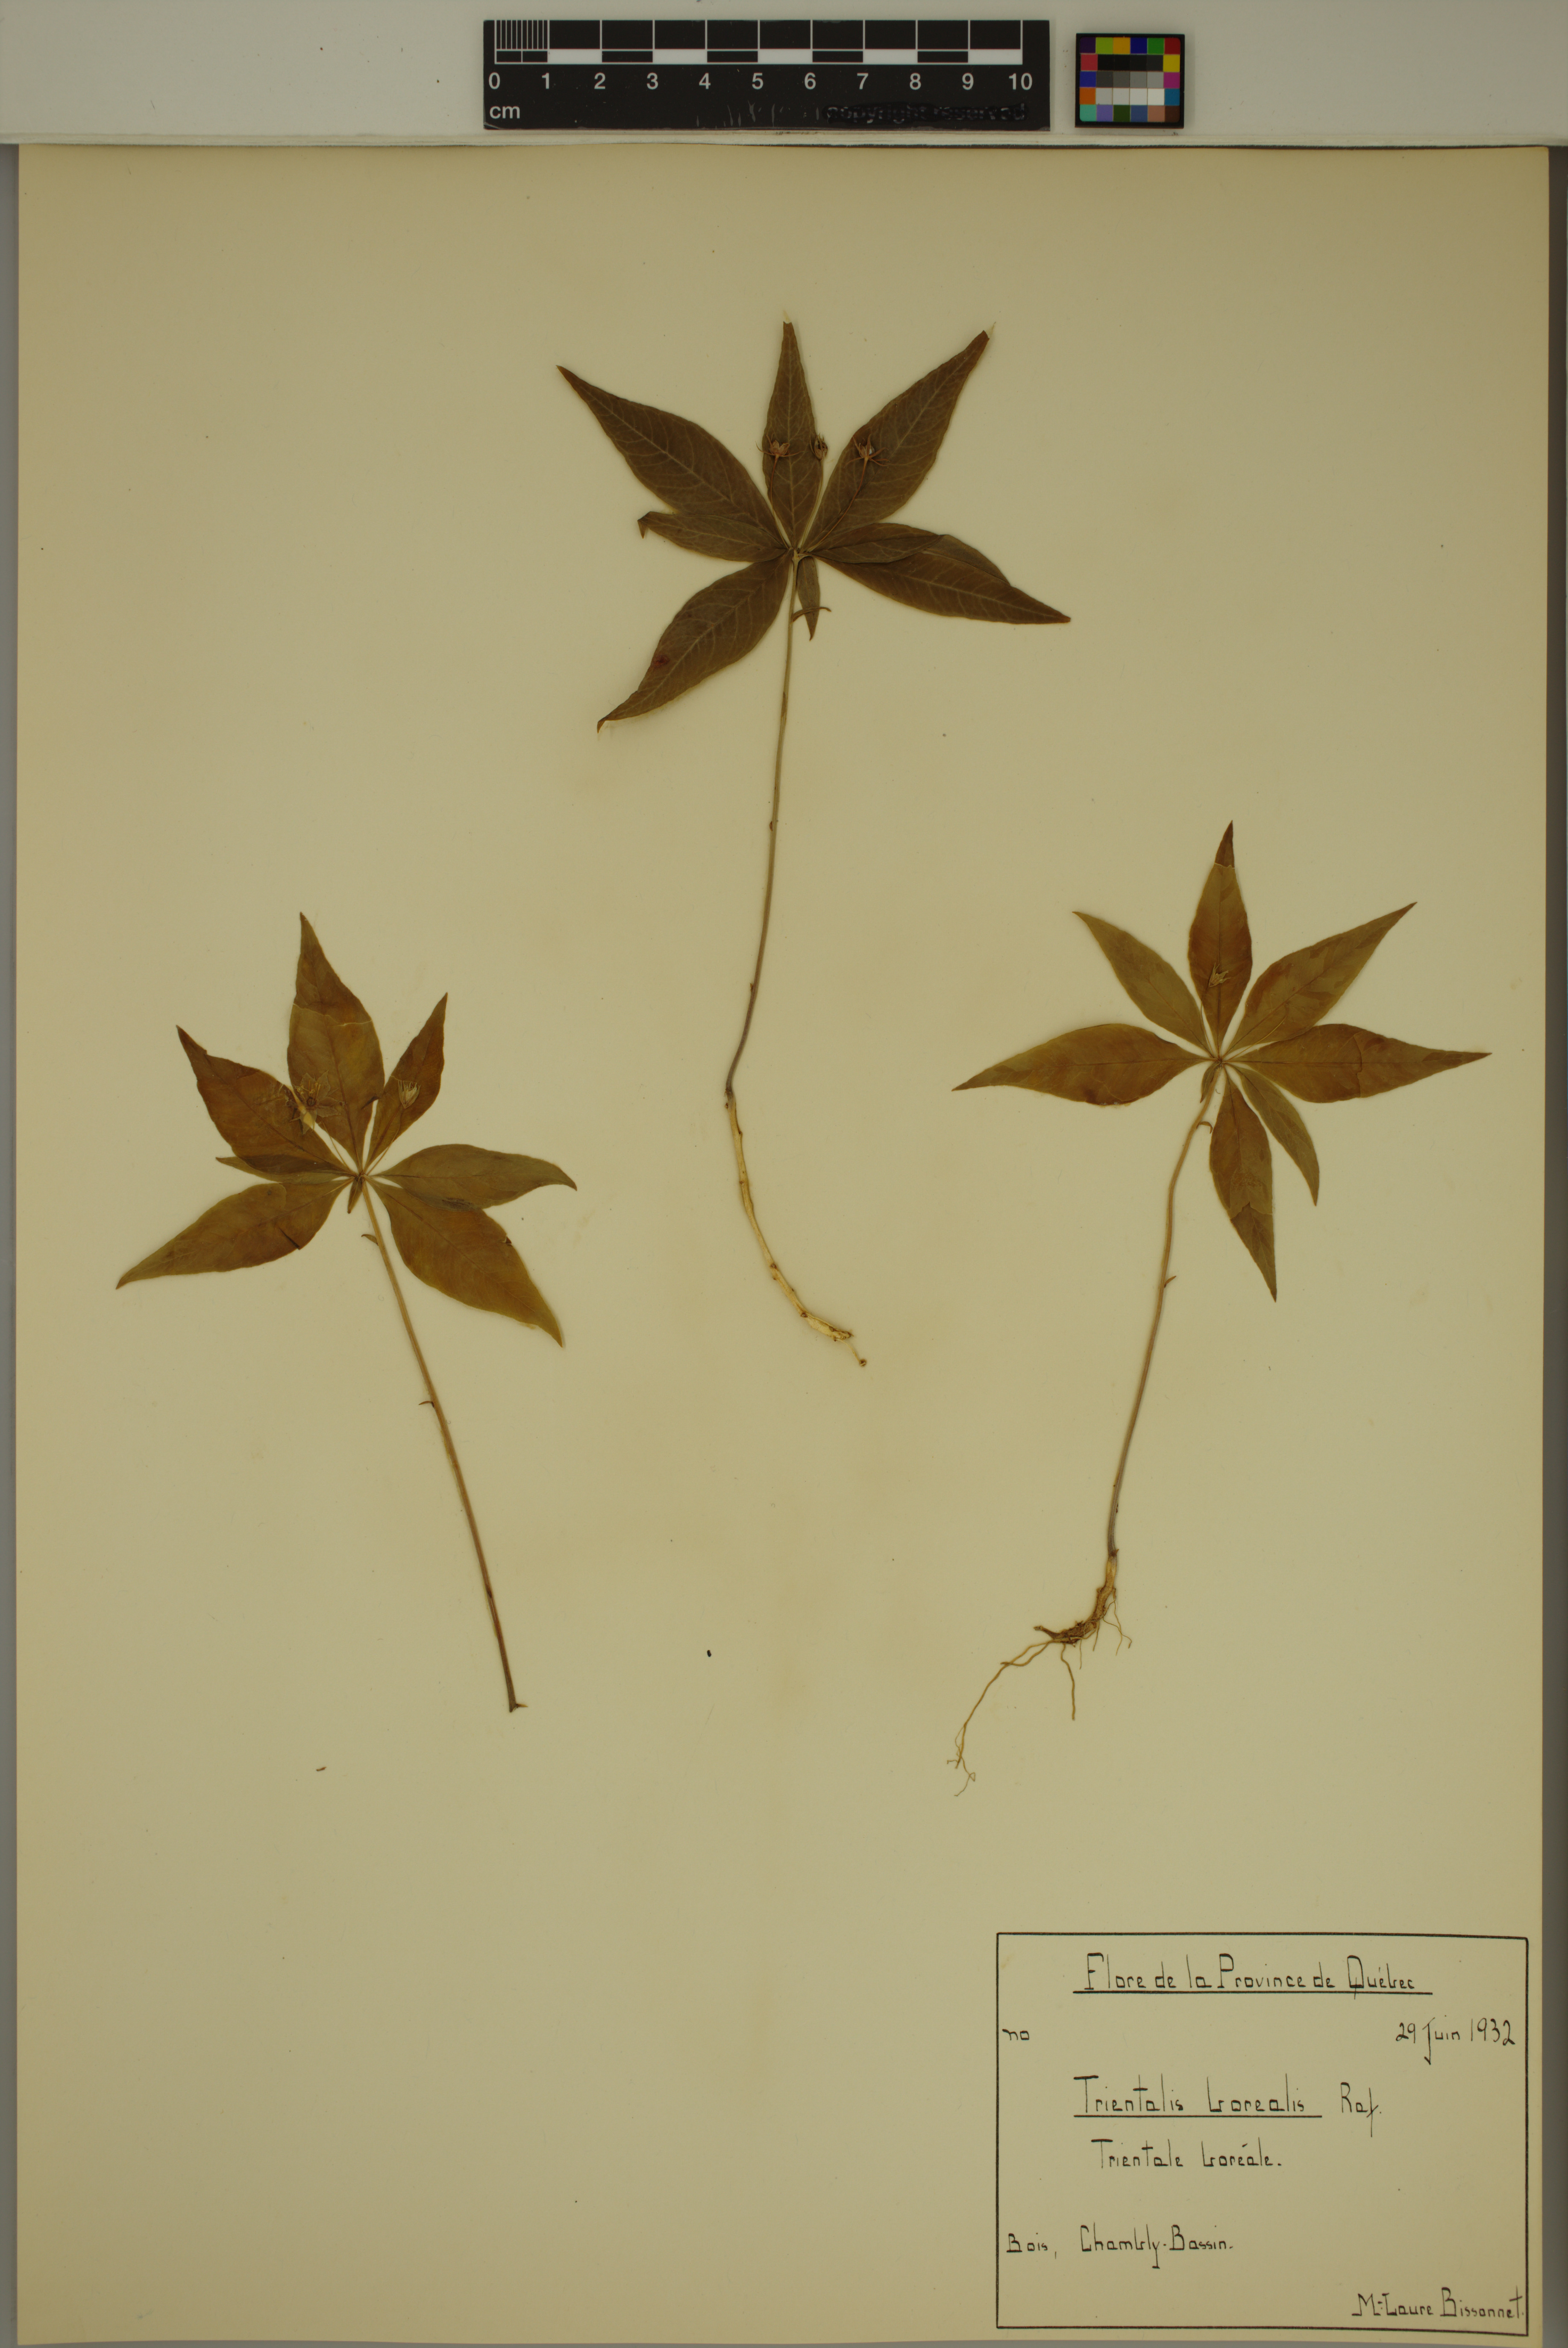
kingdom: Plantae
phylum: Tracheophyta
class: Magnoliopsida
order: Ericales
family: Primulaceae
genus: Lysimachia
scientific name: Lysimachia borealis
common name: American starflower
